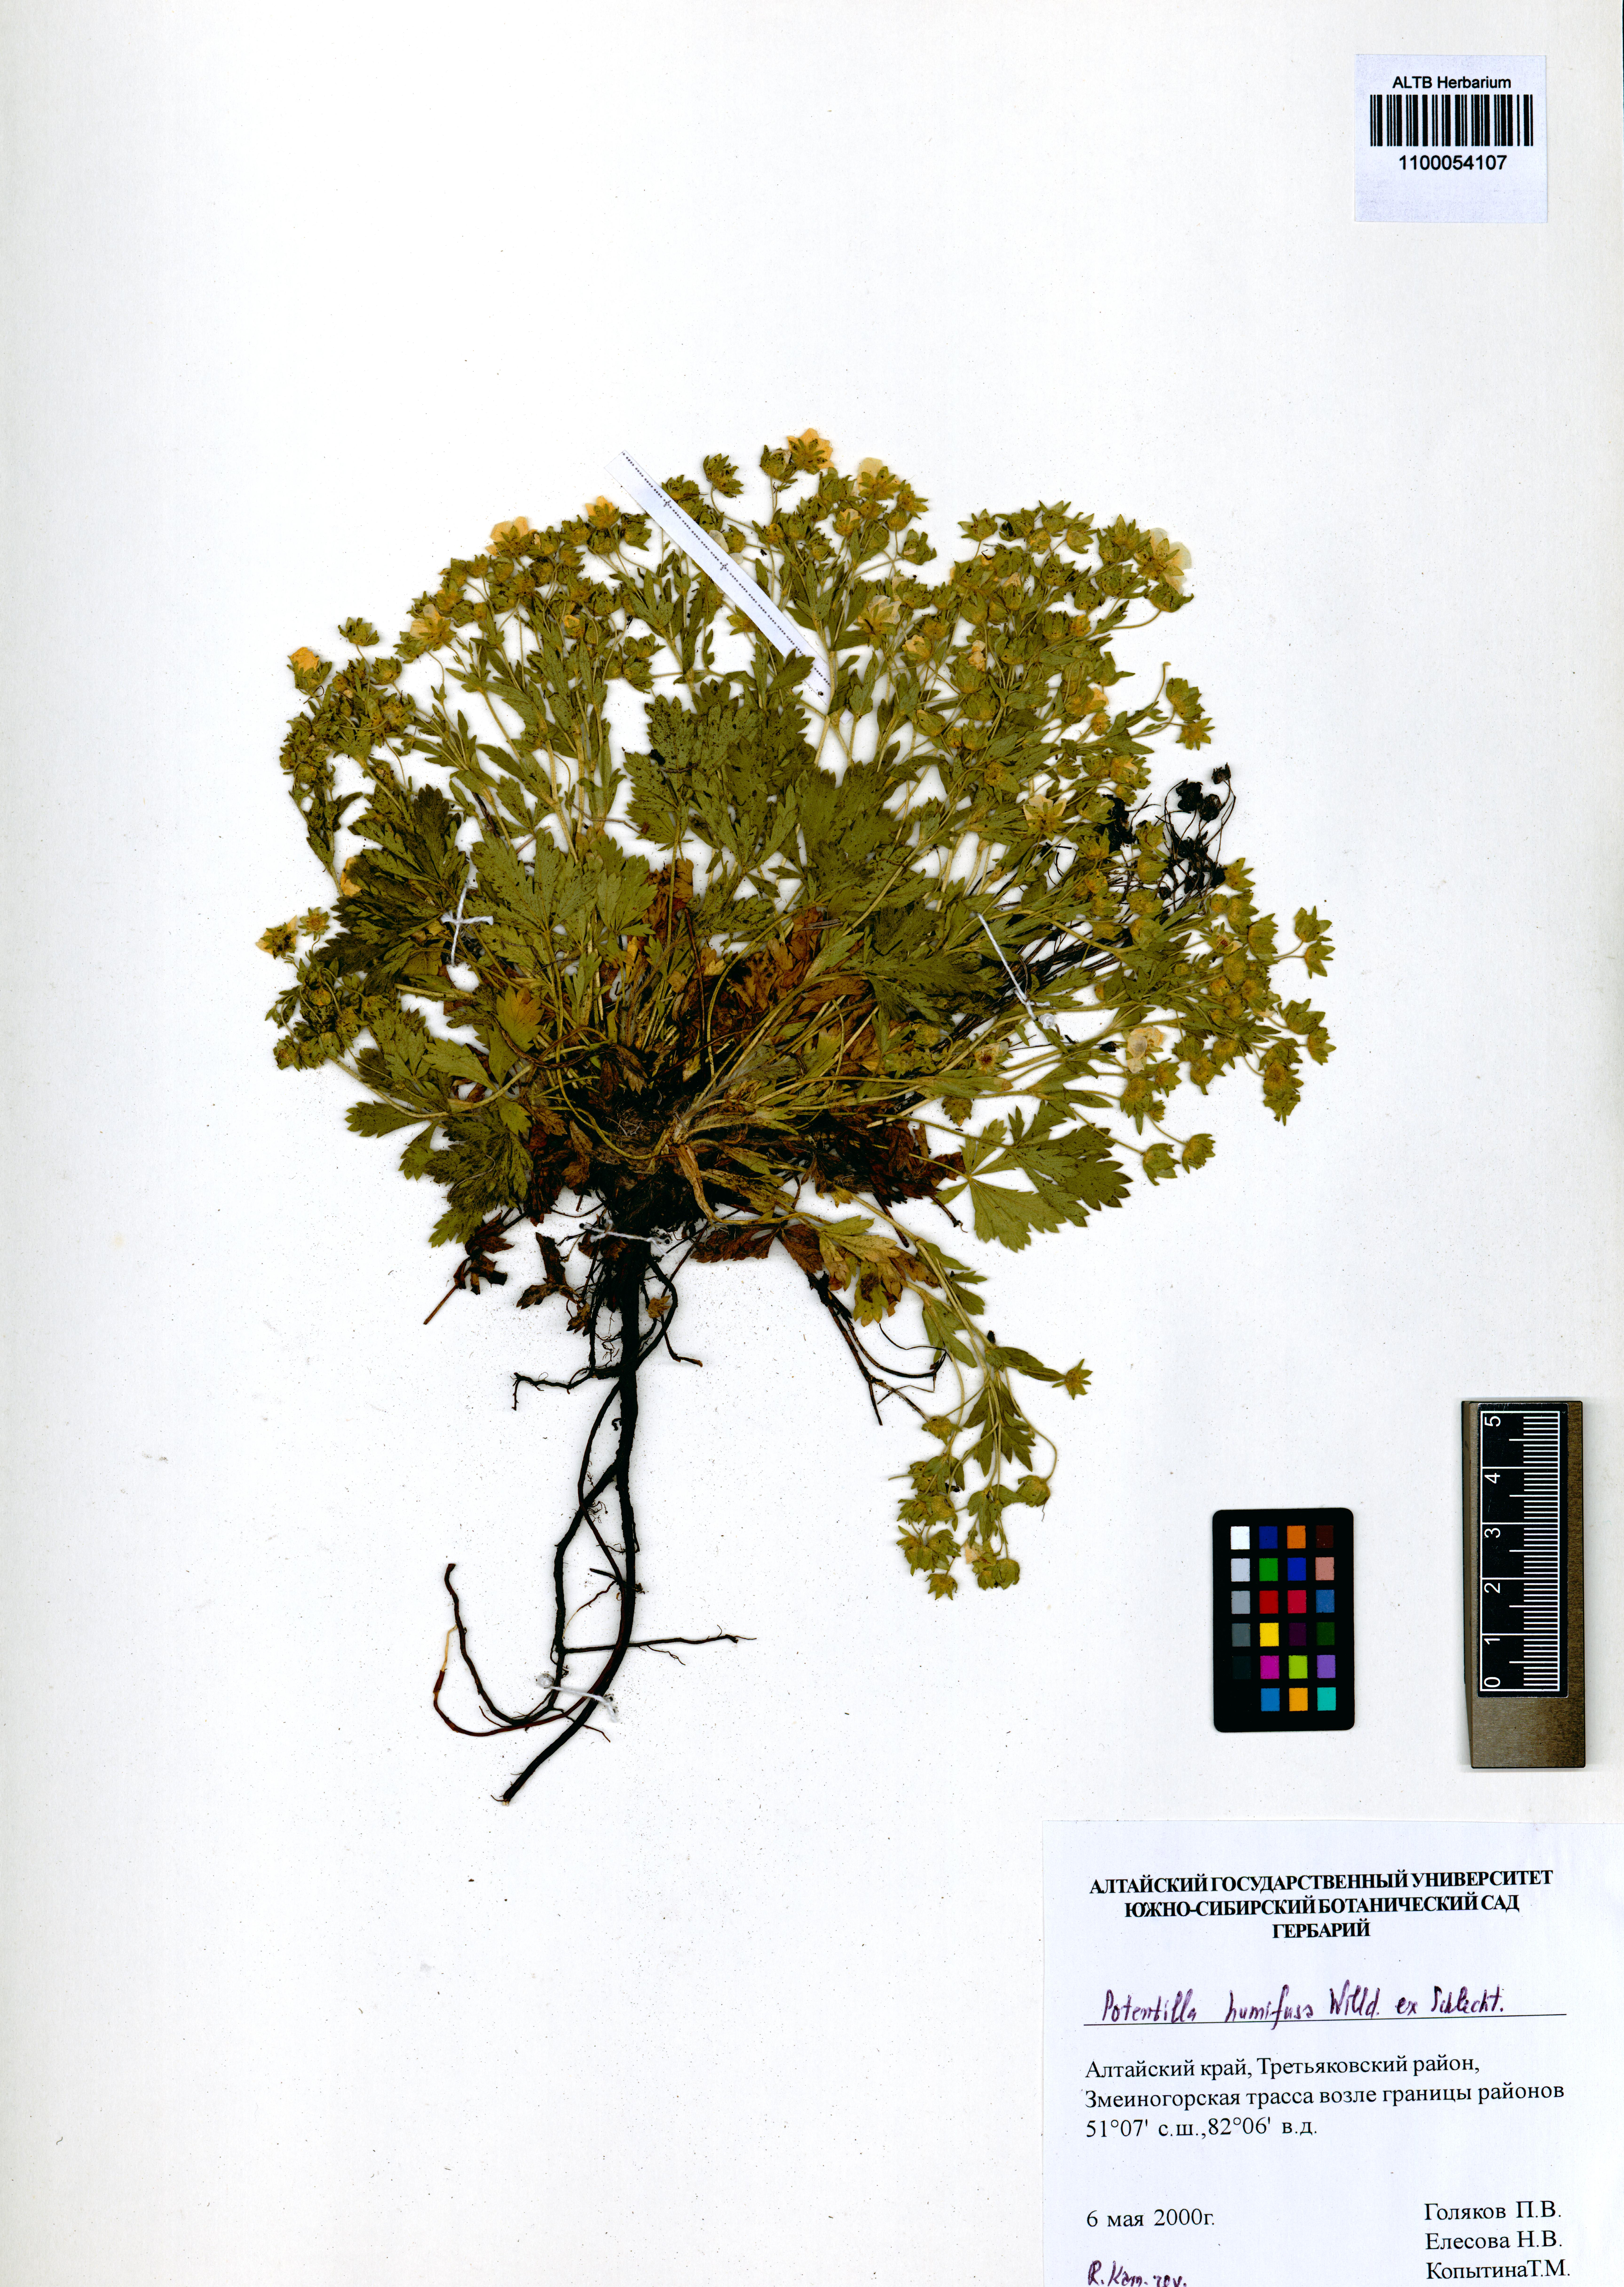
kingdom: Plantae
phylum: Tracheophyta
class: Magnoliopsida
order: Rosales
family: Rosaceae
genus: Potentilla
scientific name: Potentilla humifusa
